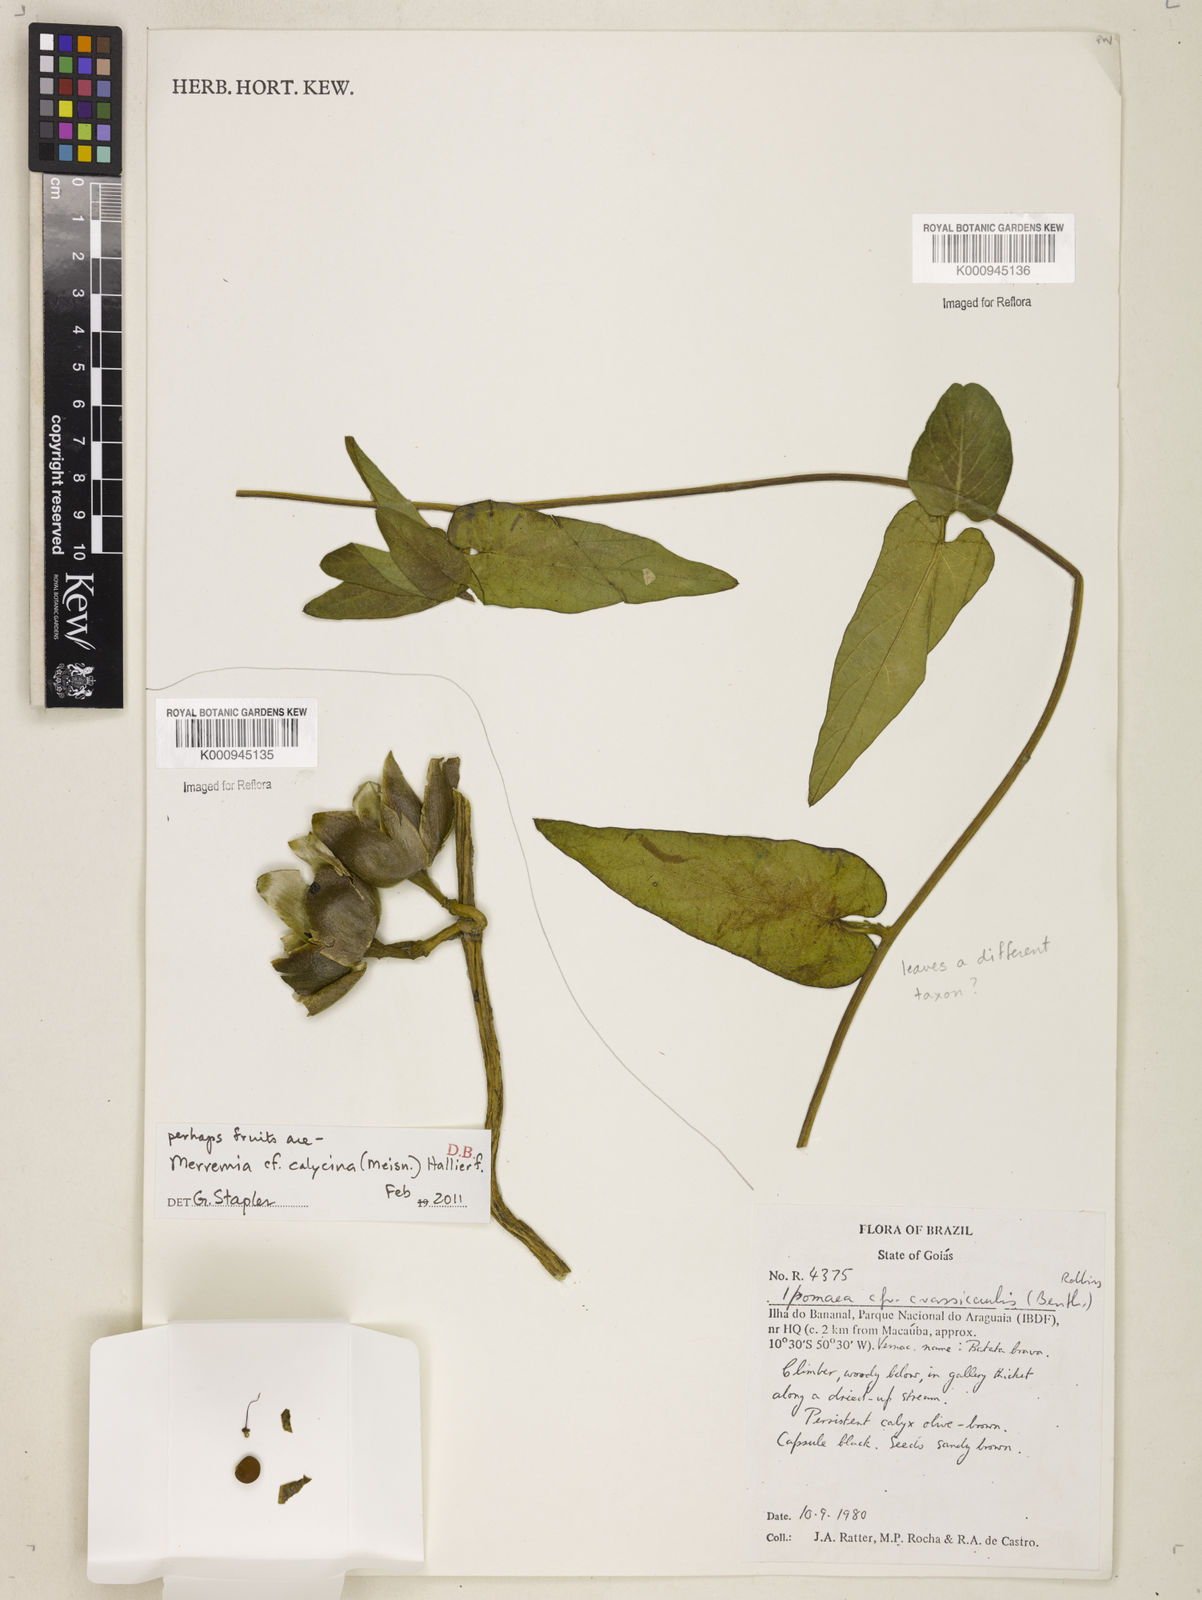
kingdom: Plantae
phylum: Tracheophyta
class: Magnoliopsida
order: Solanales
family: Convolvulaceae
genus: Odonellia
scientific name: Odonellia calycina
